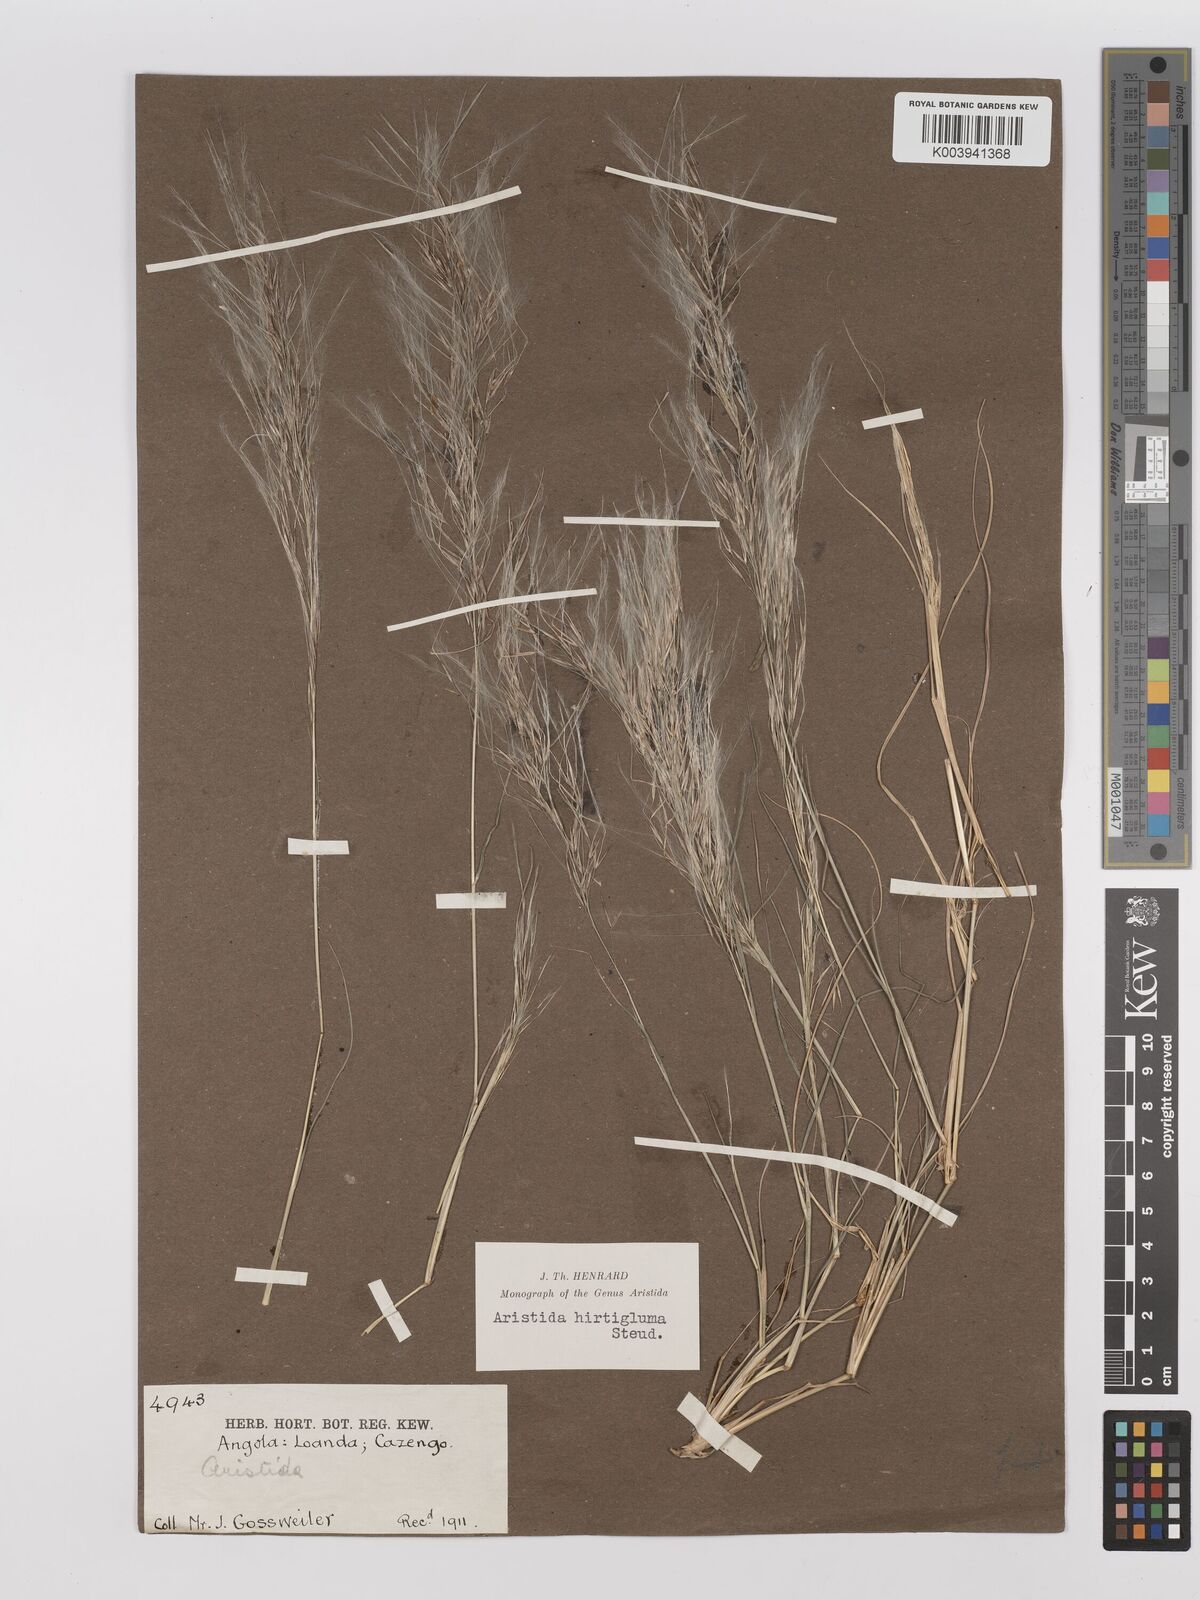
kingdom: Plantae
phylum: Tracheophyta
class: Liliopsida
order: Poales
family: Poaceae
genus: Stipagrostis
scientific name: Stipagrostis hirtigluma
